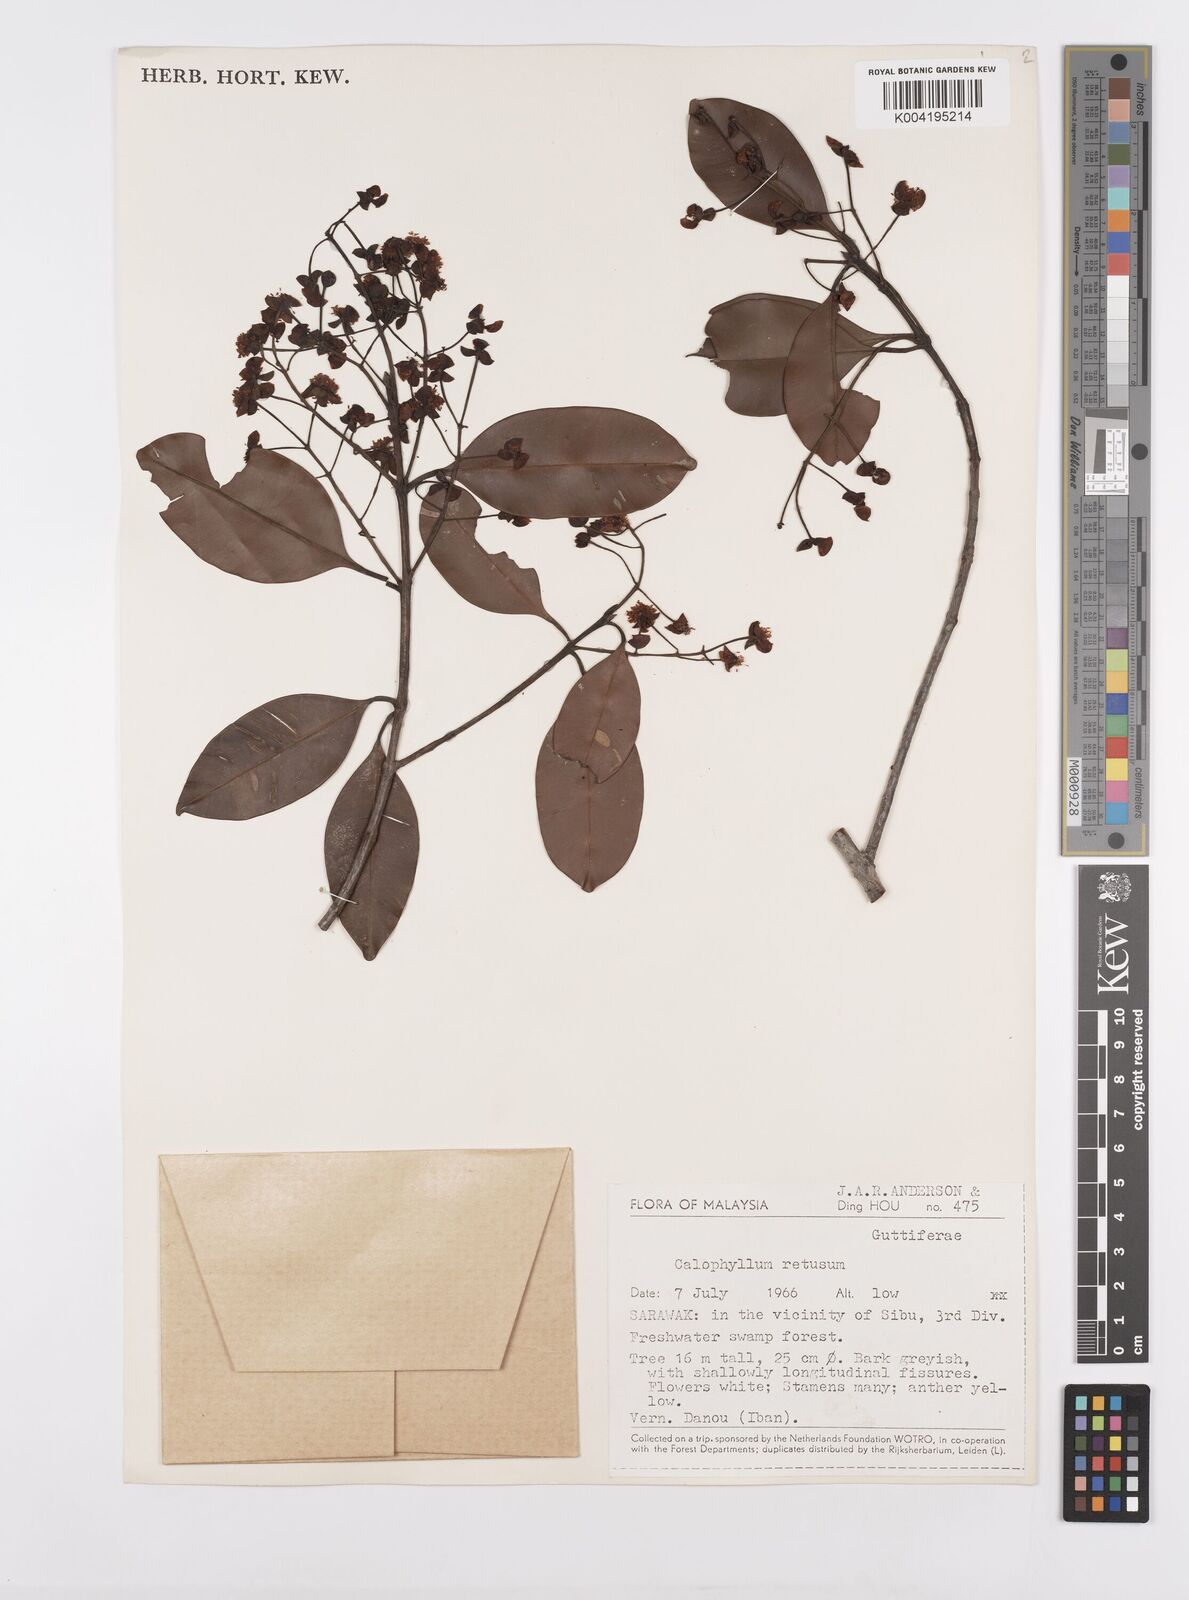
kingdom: Plantae
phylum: Tracheophyta
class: Magnoliopsida
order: Malpighiales
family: Calophyllaceae
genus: Calophyllum
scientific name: Calophyllum hosei
